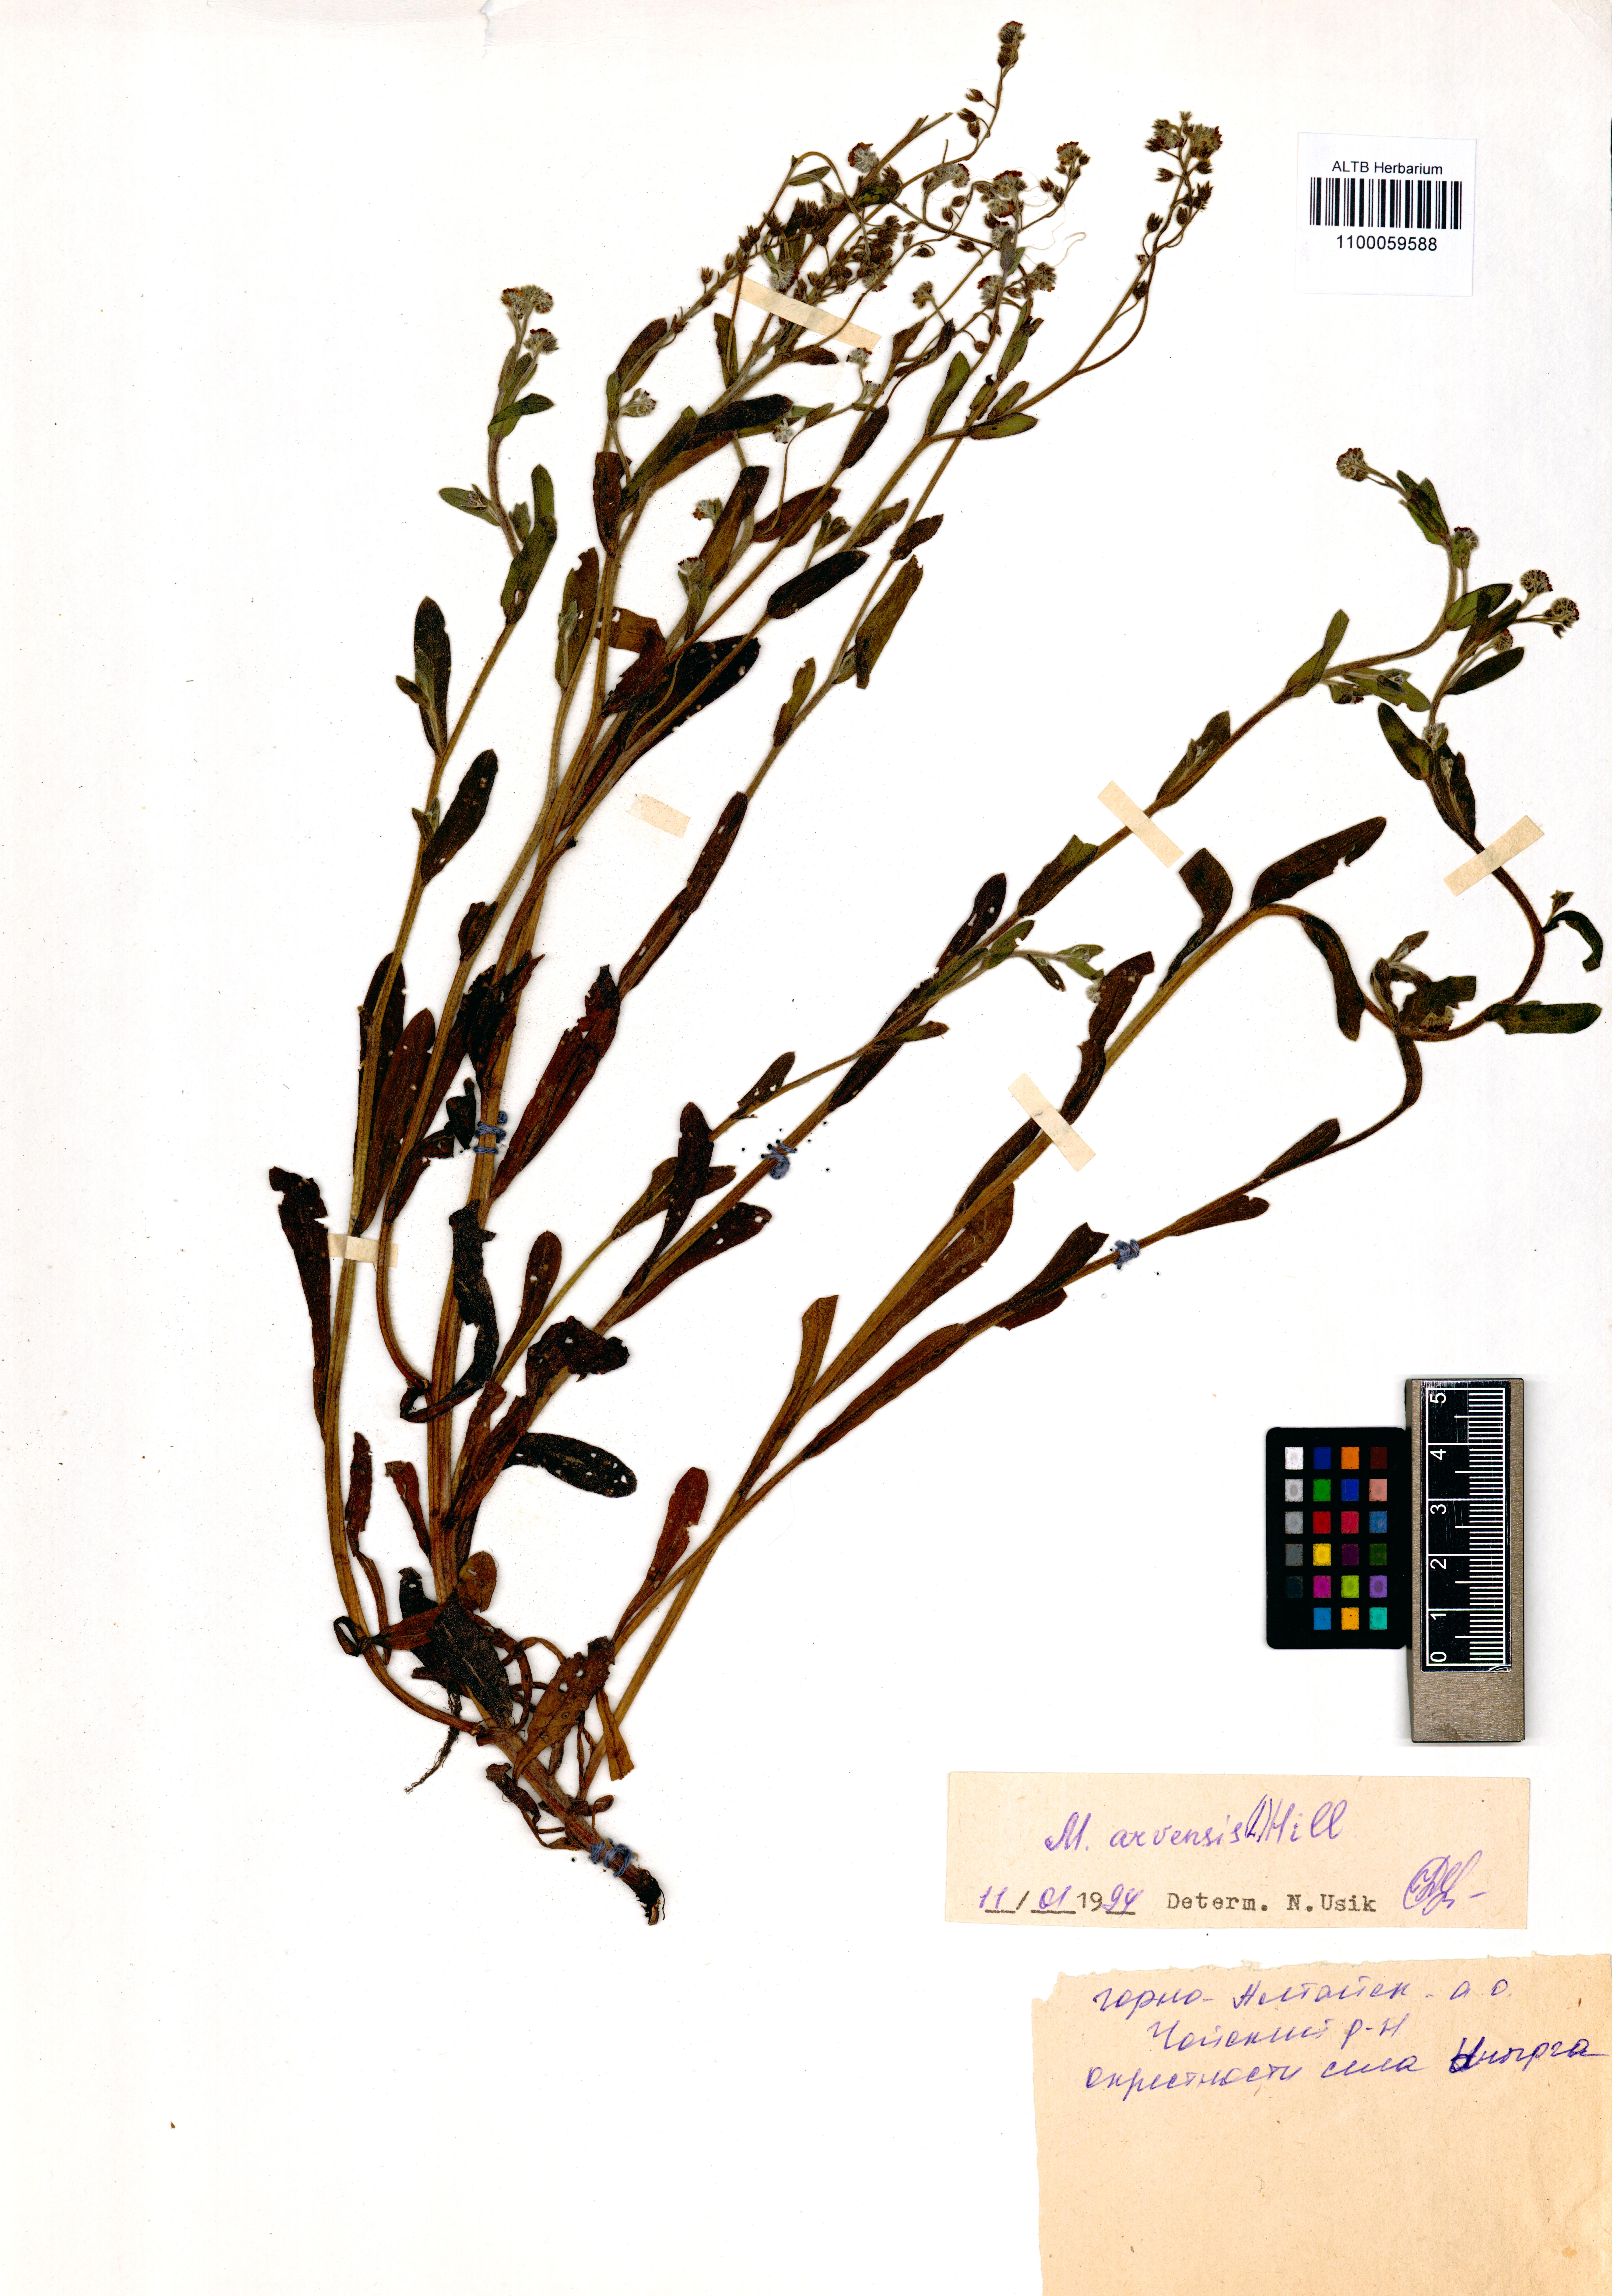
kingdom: Plantae
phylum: Tracheophyta
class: Magnoliopsida
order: Boraginales
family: Boraginaceae
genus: Myosotis
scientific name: Myosotis arvensis
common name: Field forget-me-not
